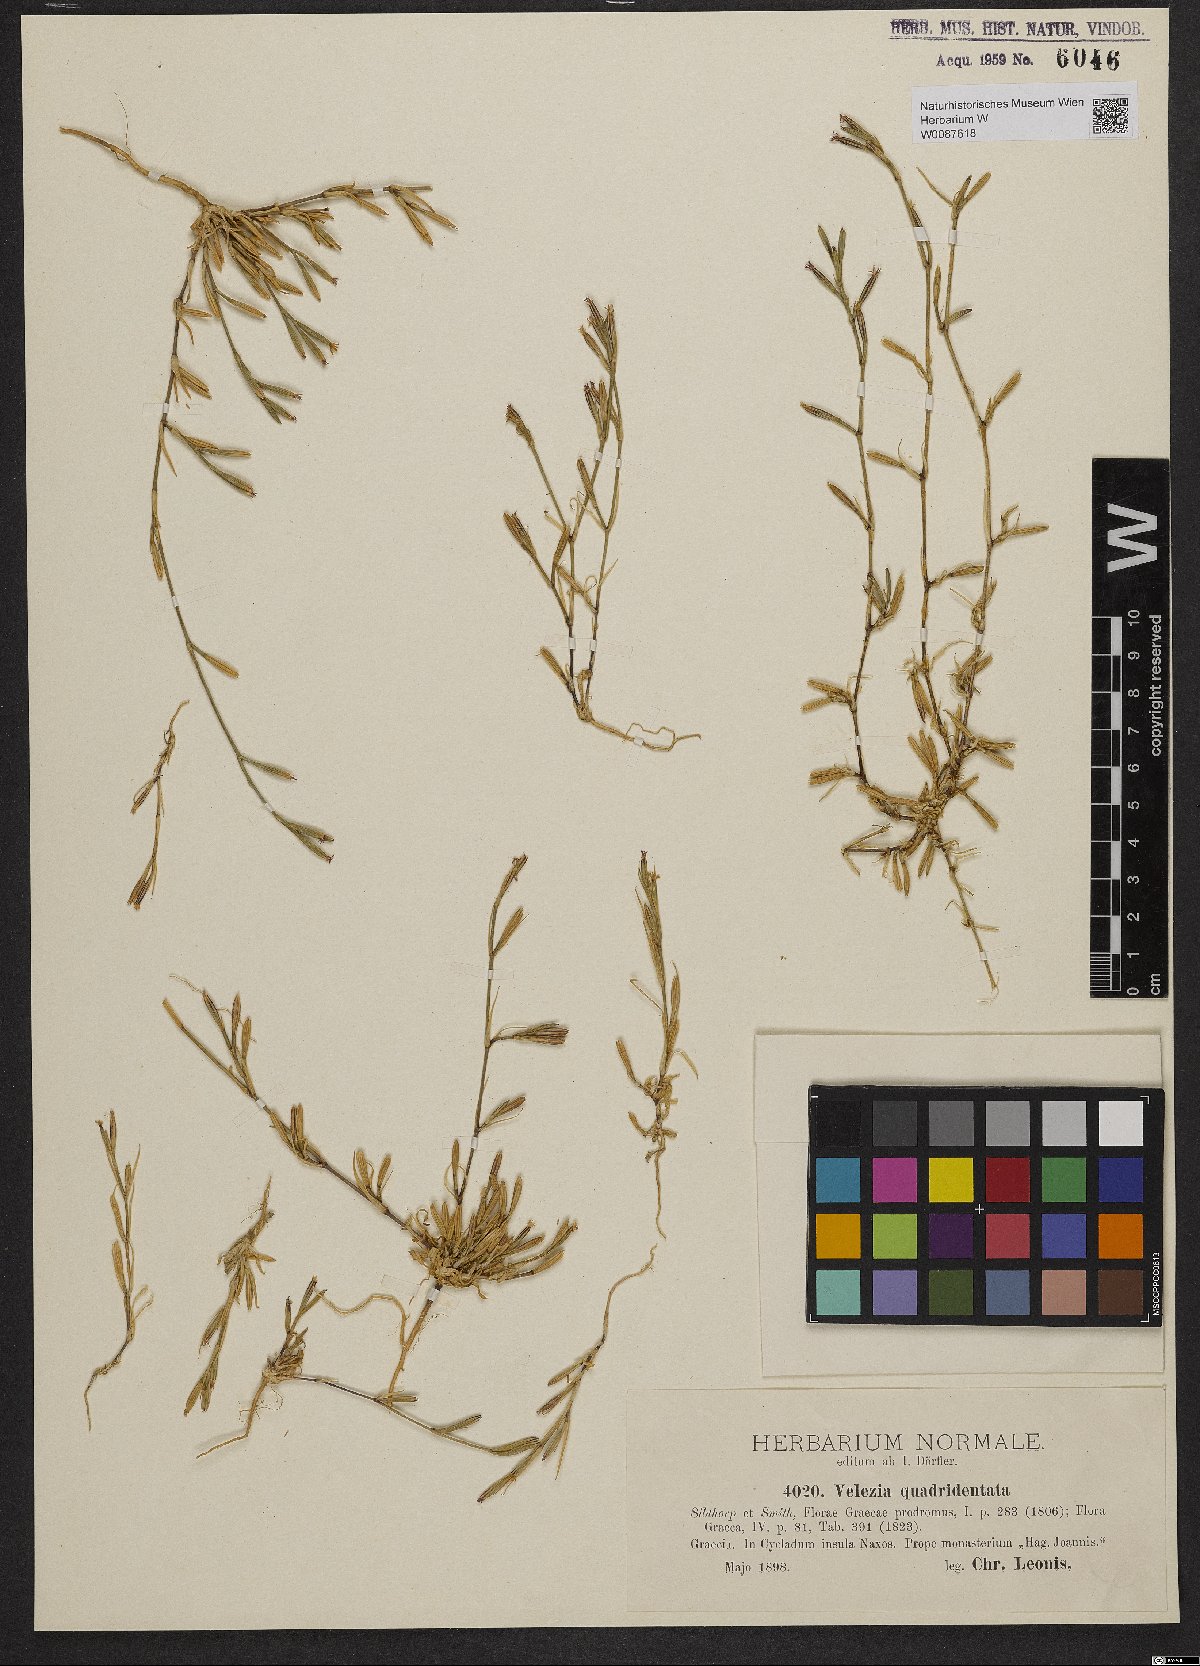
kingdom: Plantae
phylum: Tracheophyta
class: Magnoliopsida
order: Caryophyllales
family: Caryophyllaceae
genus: Dianthus
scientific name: Dianthus quadridentatus
